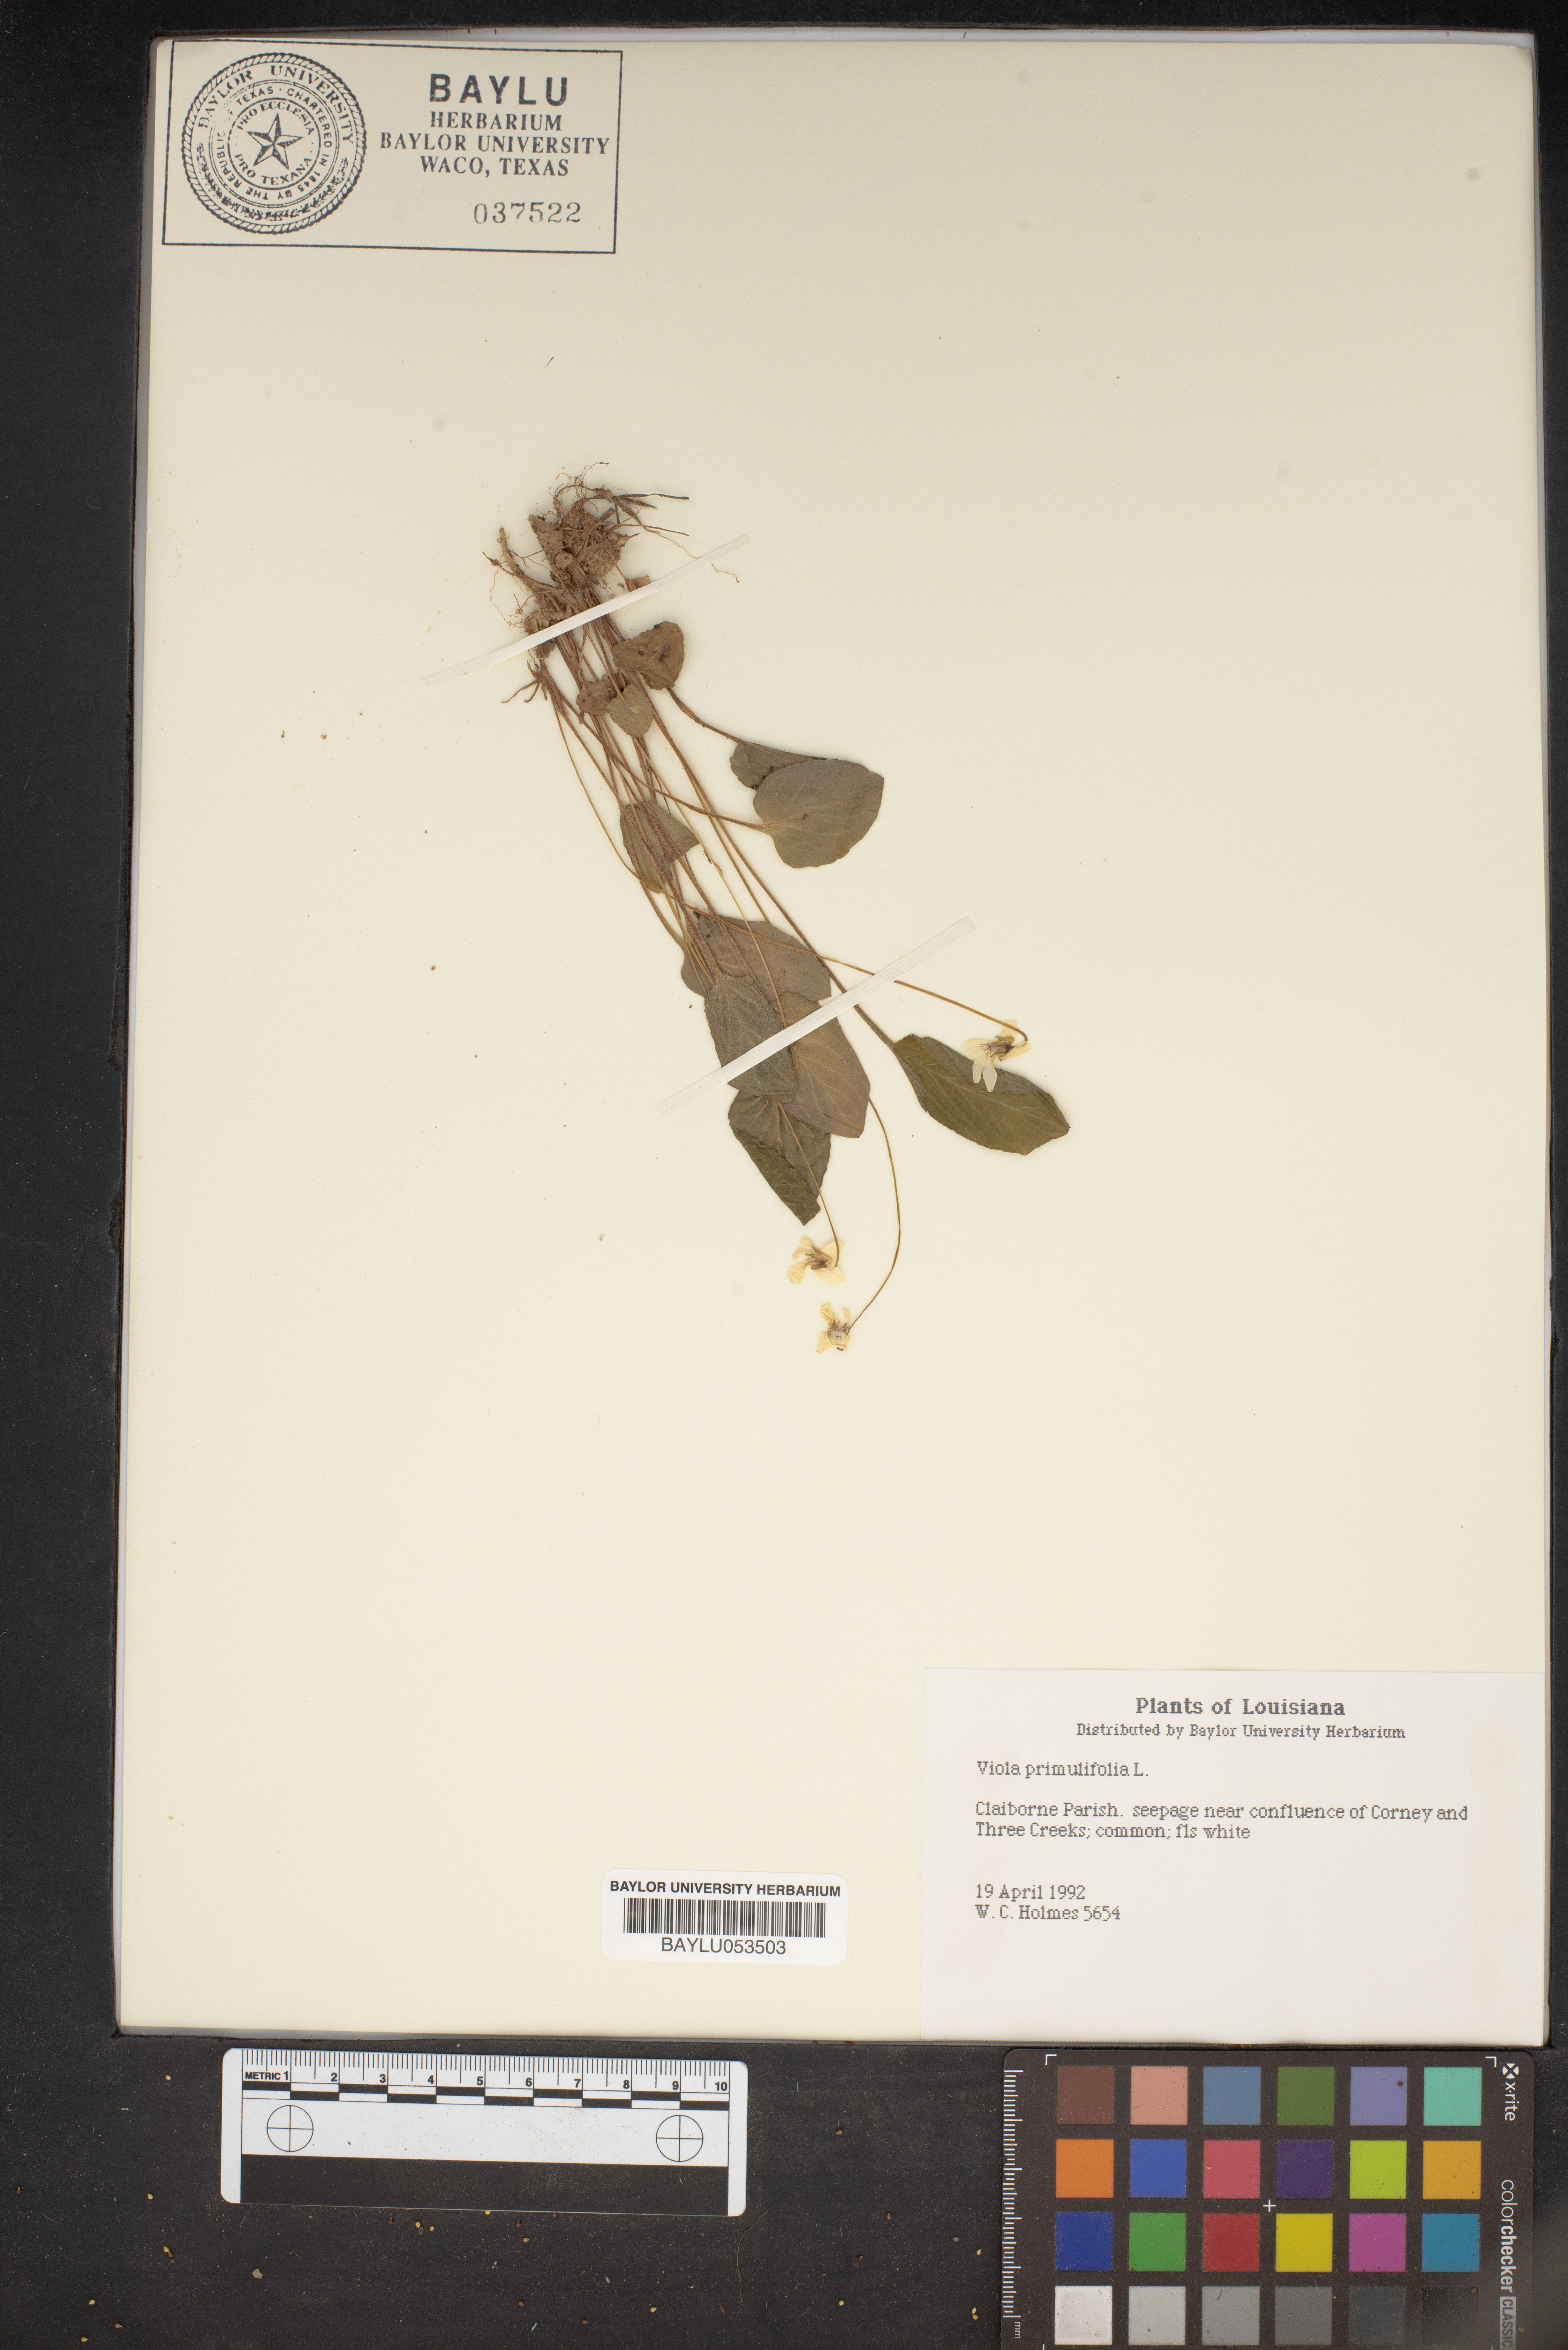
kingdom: Plantae
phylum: Tracheophyta
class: Magnoliopsida
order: Malpighiales
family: Violaceae
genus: Viola
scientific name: Viola primulifolia
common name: Primrose-leaf violet
